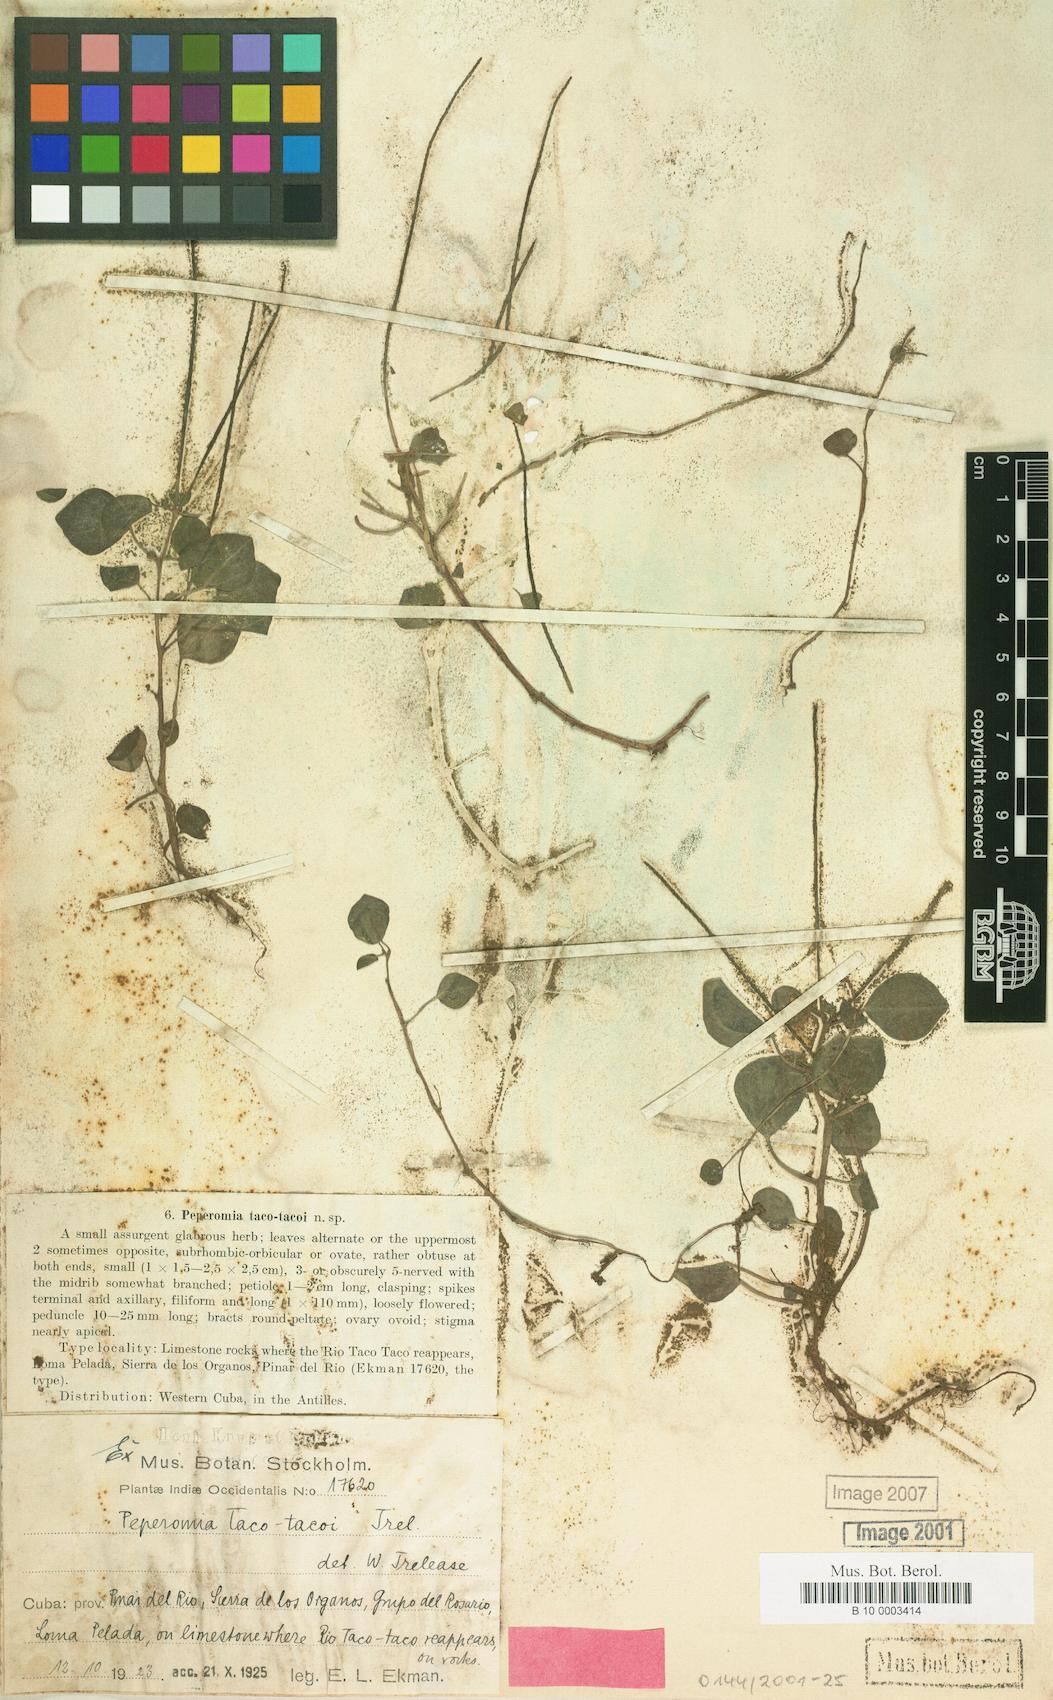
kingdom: Plantae
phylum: Tracheophyta
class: Magnoliopsida
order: Piperales
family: Piperaceae
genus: Peperomia
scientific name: Peperomia petiolaris
